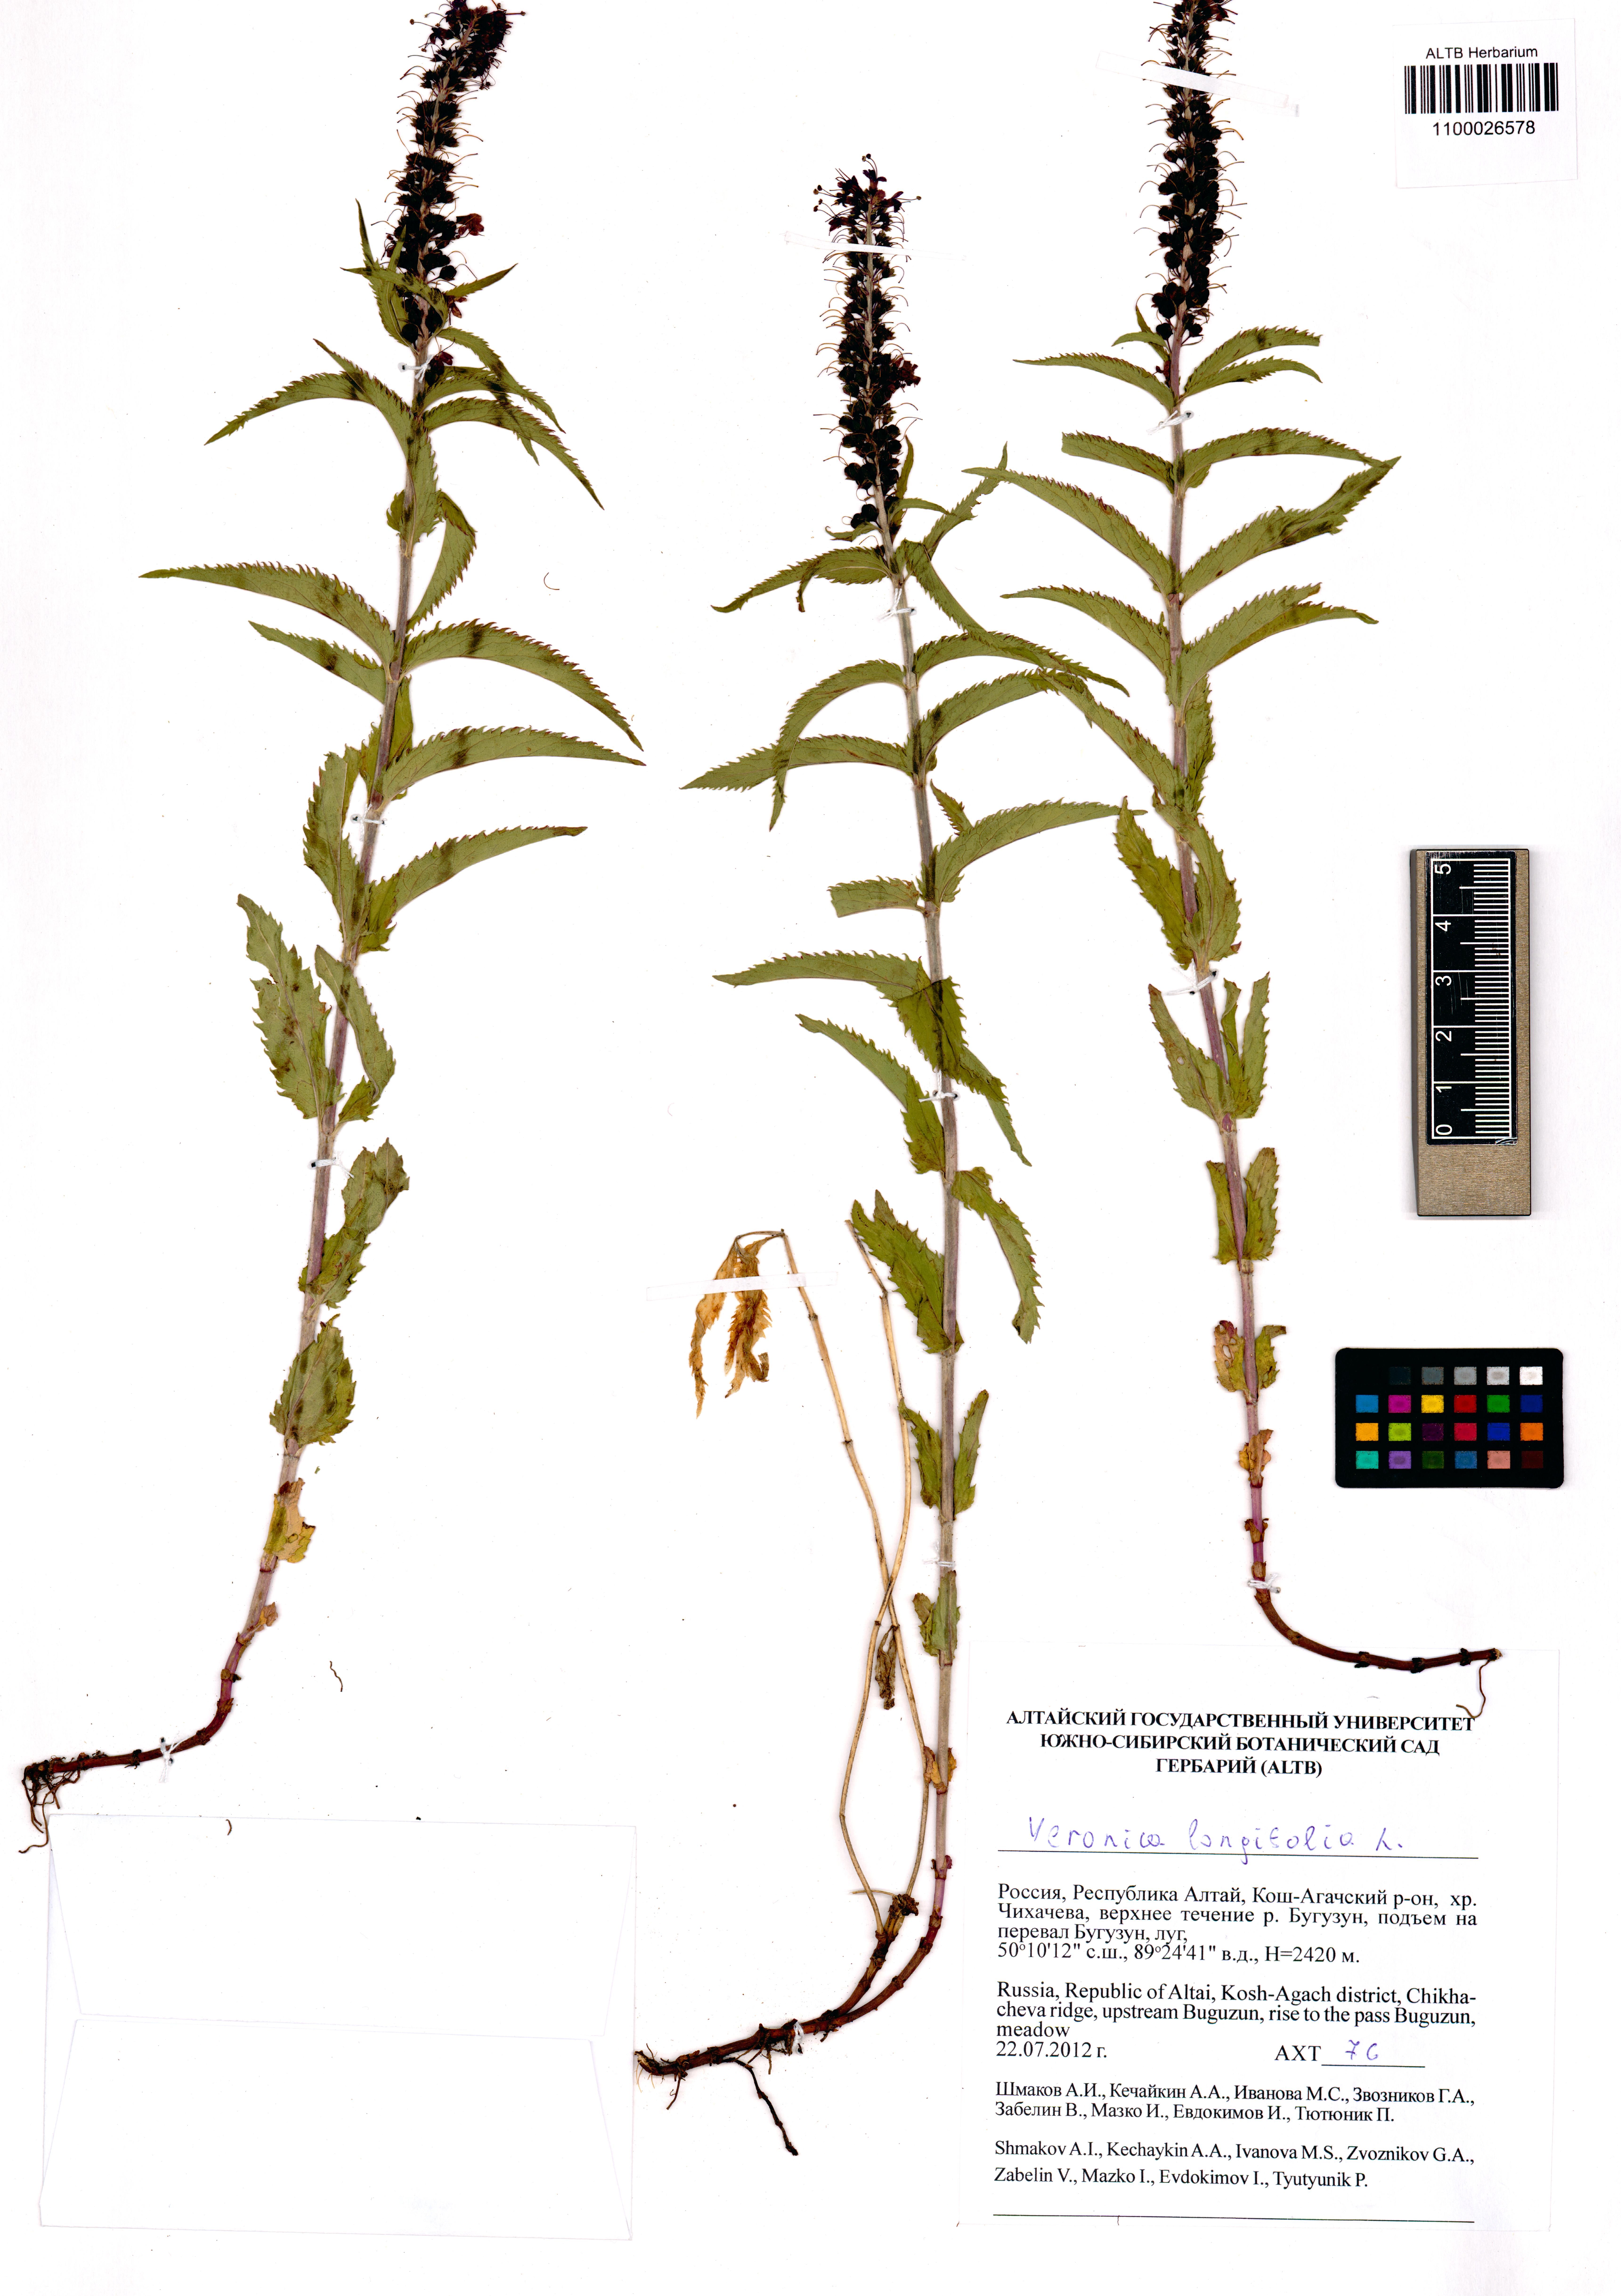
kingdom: Plantae
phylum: Tracheophyta
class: Magnoliopsida
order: Lamiales
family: Plantaginaceae
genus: Veronica
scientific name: Veronica longifolia
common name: Garden speedwell
